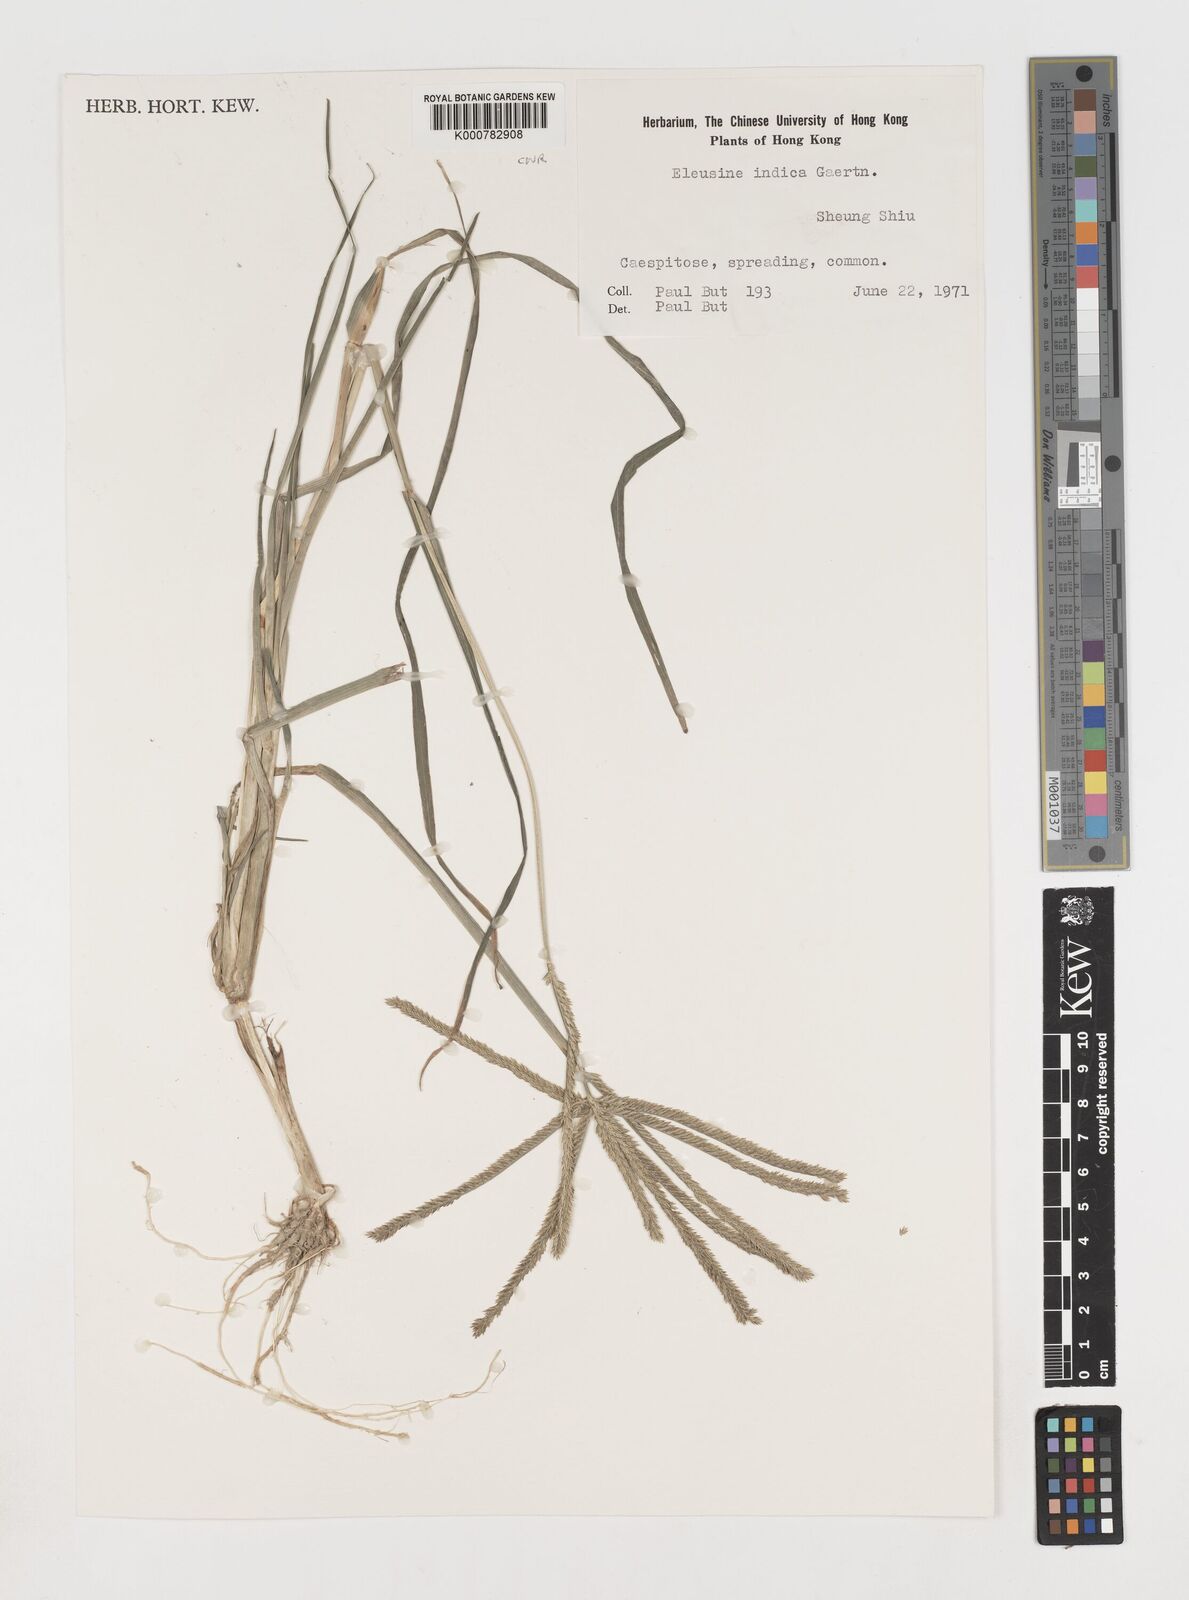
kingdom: Plantae
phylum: Tracheophyta
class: Liliopsida
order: Poales
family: Poaceae
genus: Eleusine
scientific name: Eleusine indica
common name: Yard-grass
